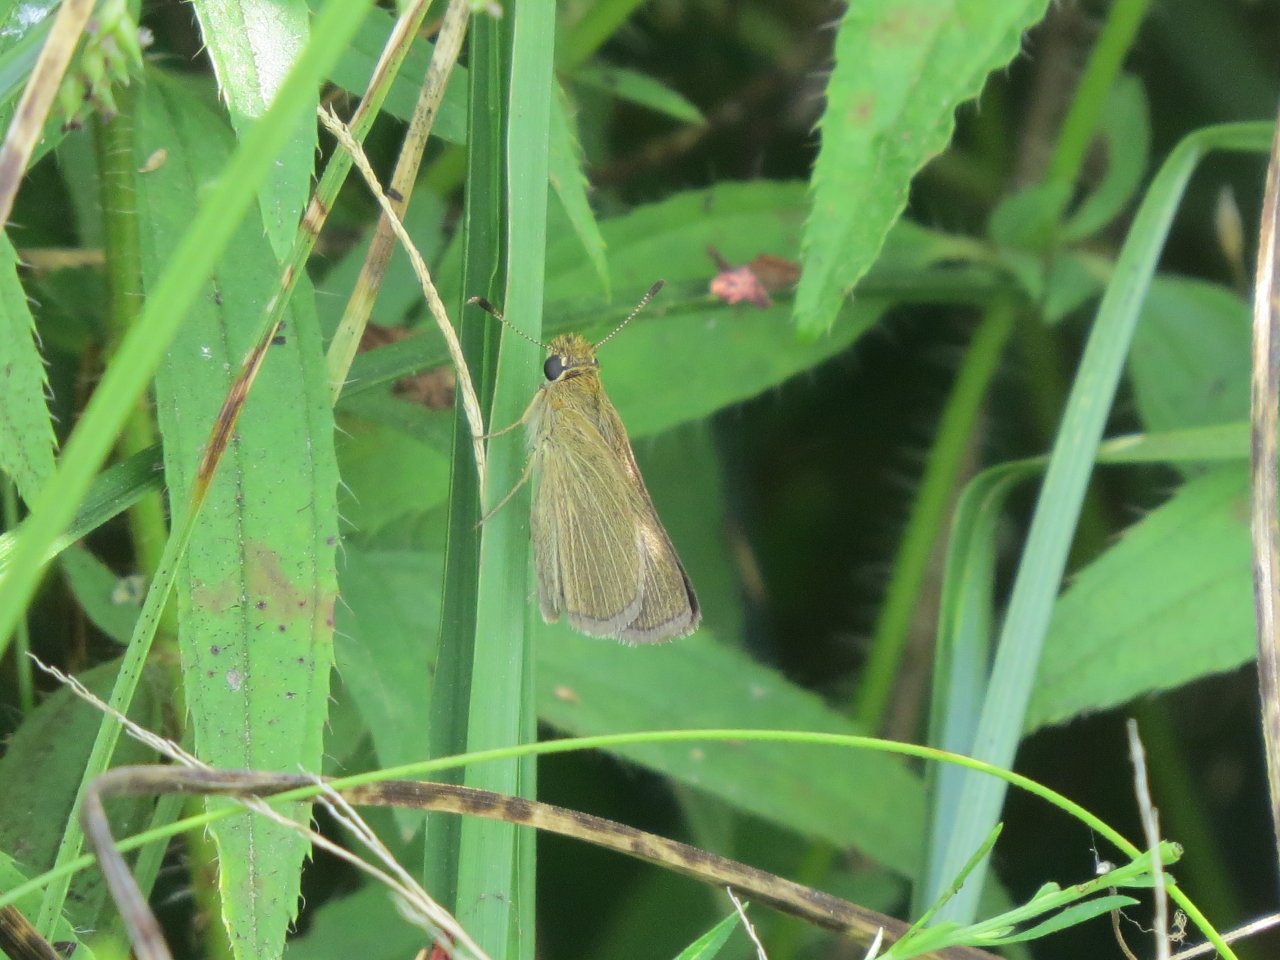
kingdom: Animalia
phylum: Arthropoda
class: Insecta
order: Lepidoptera
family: Hesperiidae
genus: Nastra
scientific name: Nastra lherminier
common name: Swarthy Skipper
